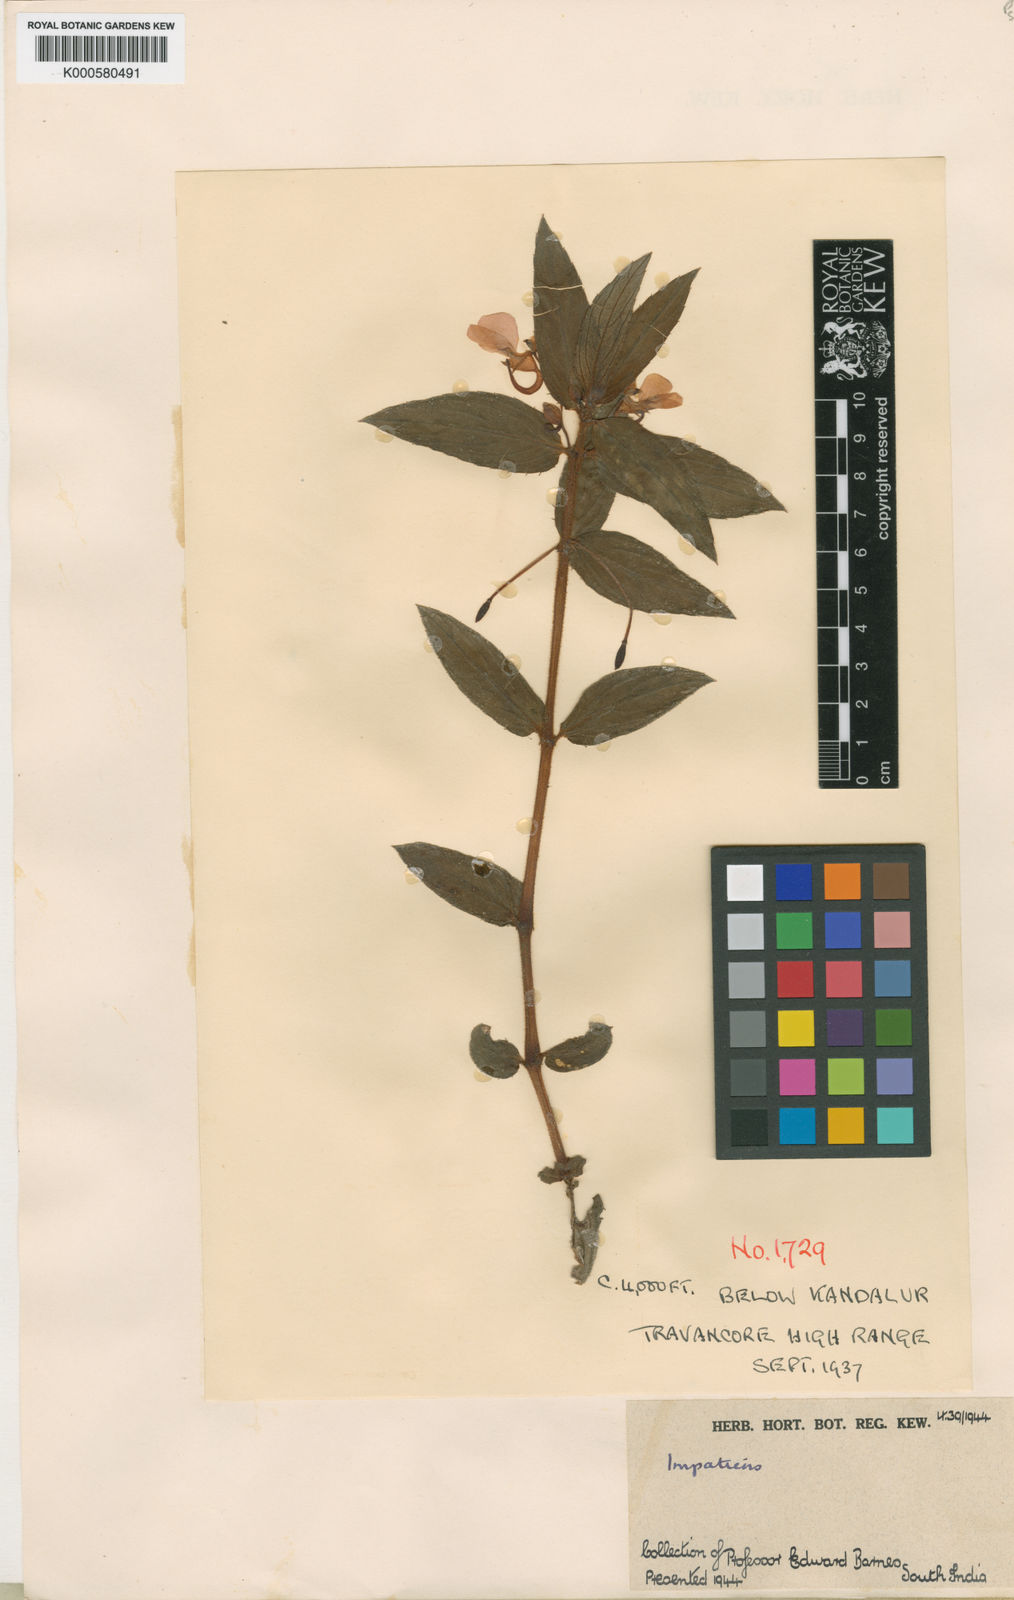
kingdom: Plantae
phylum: Tracheophyta
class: Magnoliopsida
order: Ericales
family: Balsaminaceae
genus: Impatiens
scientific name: Impatiens chinensis
